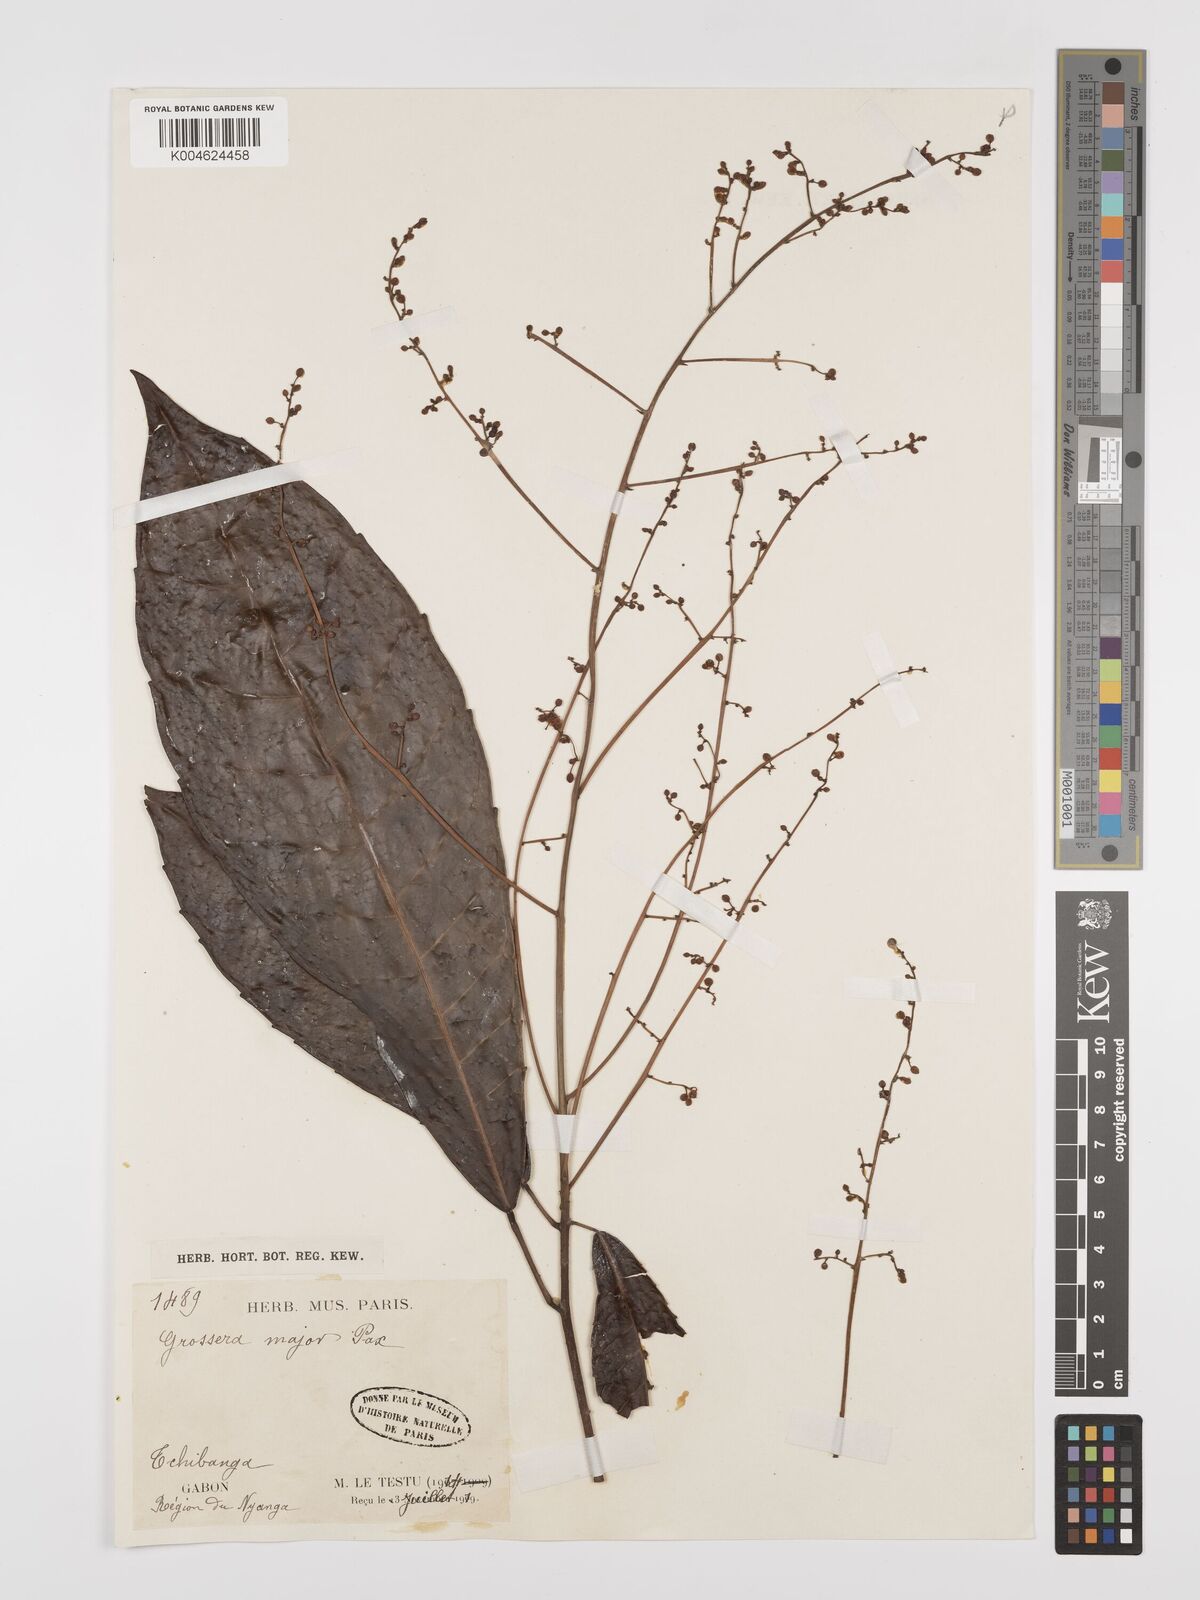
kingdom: Plantae
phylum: Tracheophyta
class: Magnoliopsida
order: Malpighiales
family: Euphorbiaceae
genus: Grossera
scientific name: Grossera major
